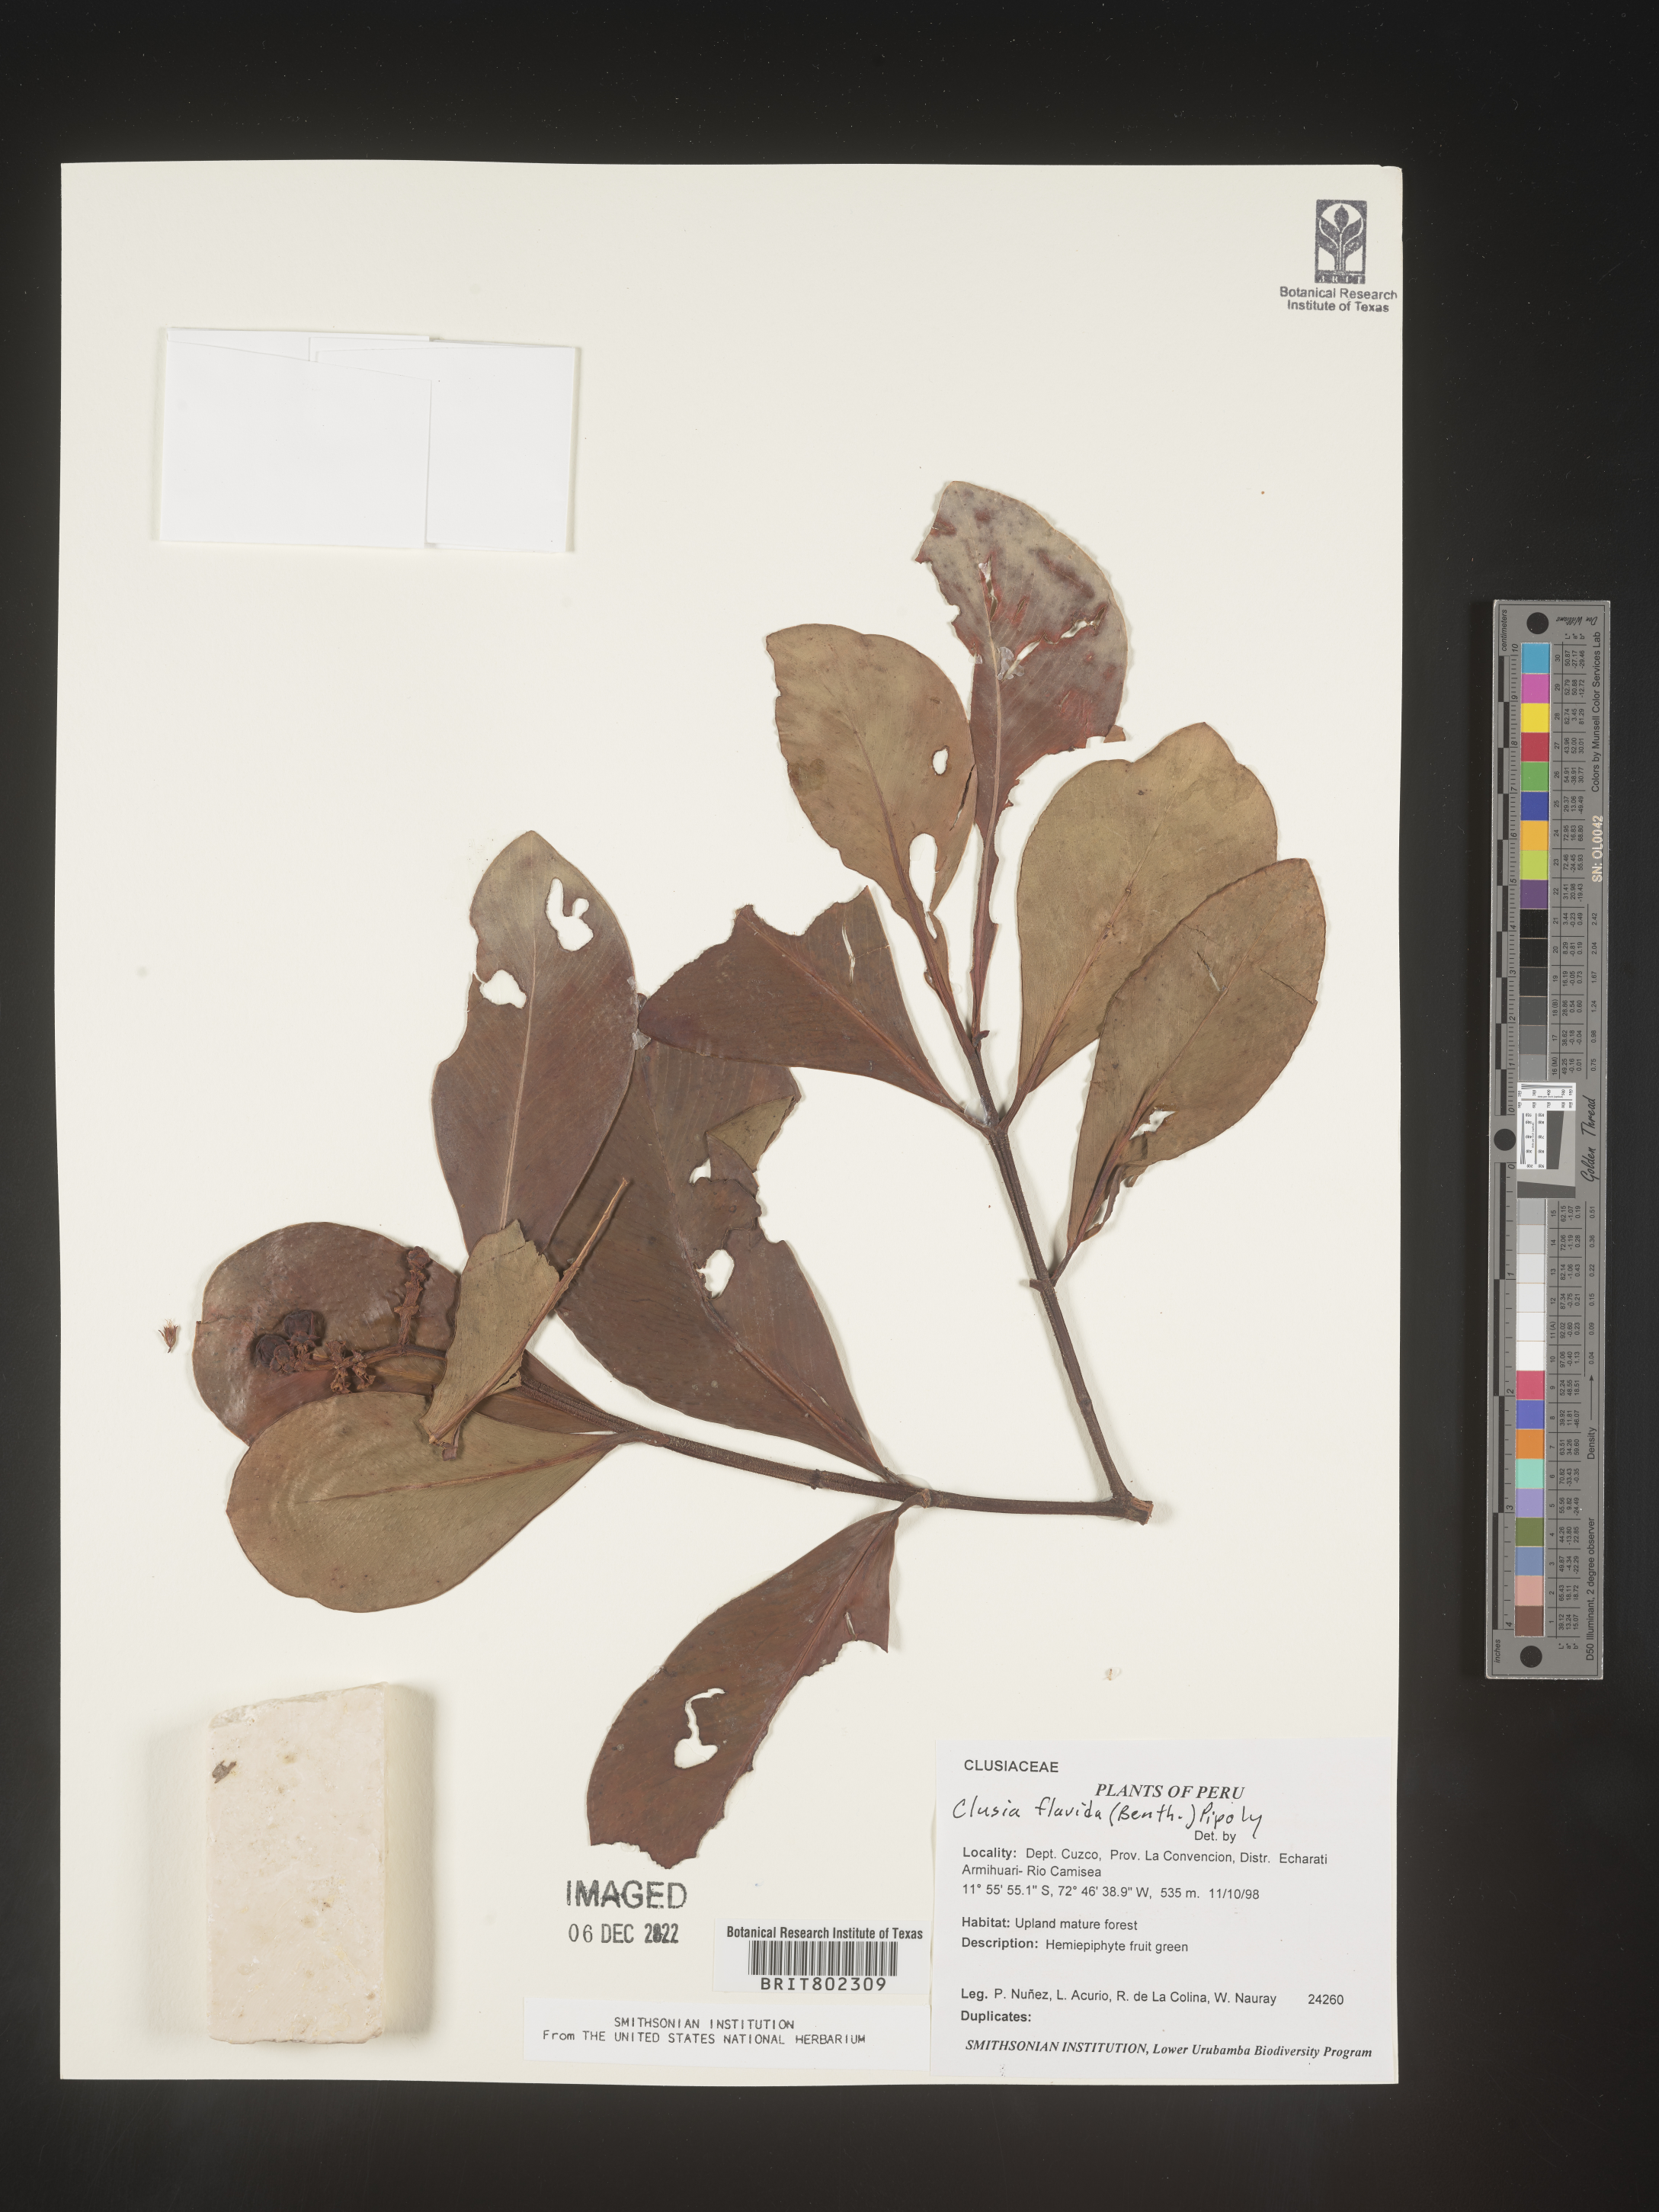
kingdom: Plantae
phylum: Tracheophyta
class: Magnoliopsida
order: Malpighiales
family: Clusiaceae
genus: Clusia
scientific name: Clusia flavida
